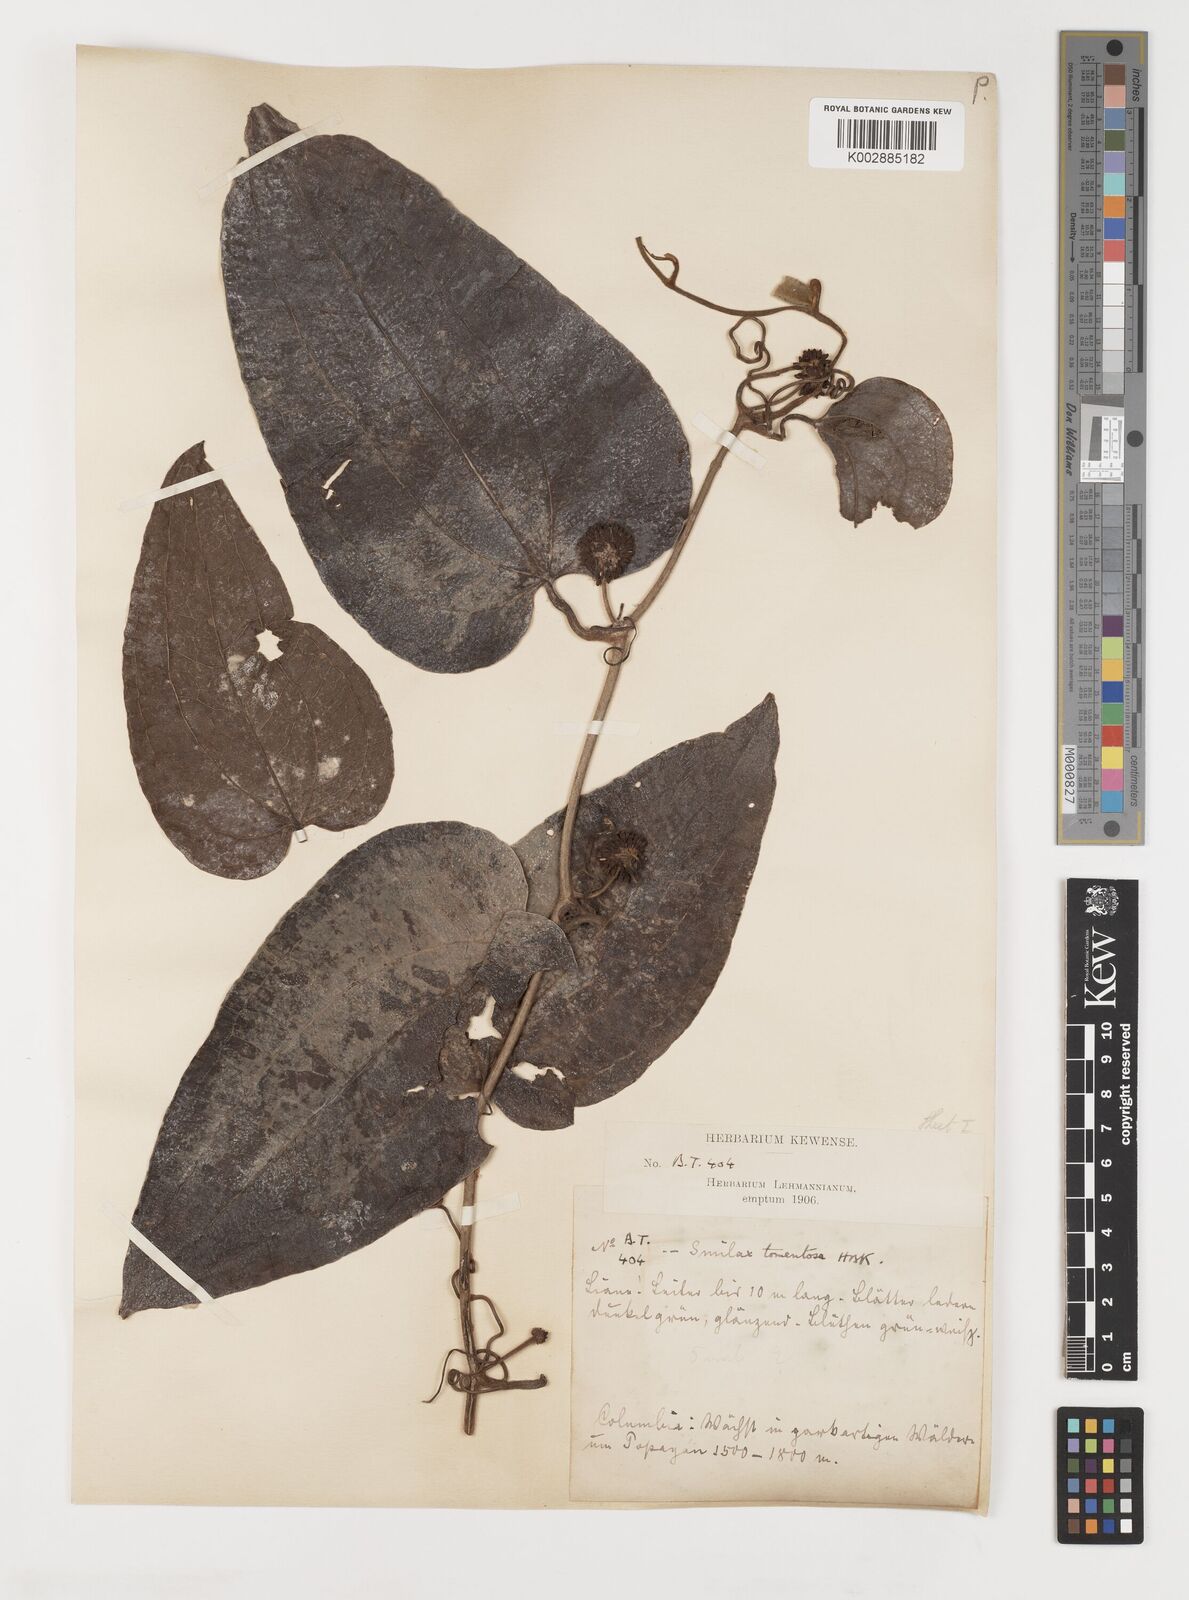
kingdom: Plantae
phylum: Tracheophyta
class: Liliopsida
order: Liliales
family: Smilacaceae
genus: Smilax
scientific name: Smilax tomentosa
